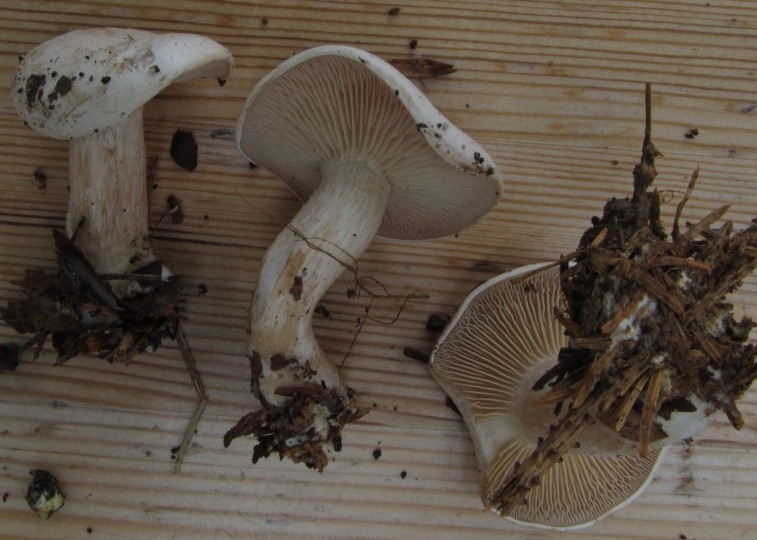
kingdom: Fungi
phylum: Basidiomycota
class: Agaricomycetes
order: Agaricales
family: Tricholomataceae
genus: Clitocybe
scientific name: Clitocybe phyllophila
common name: løv-tragthat
